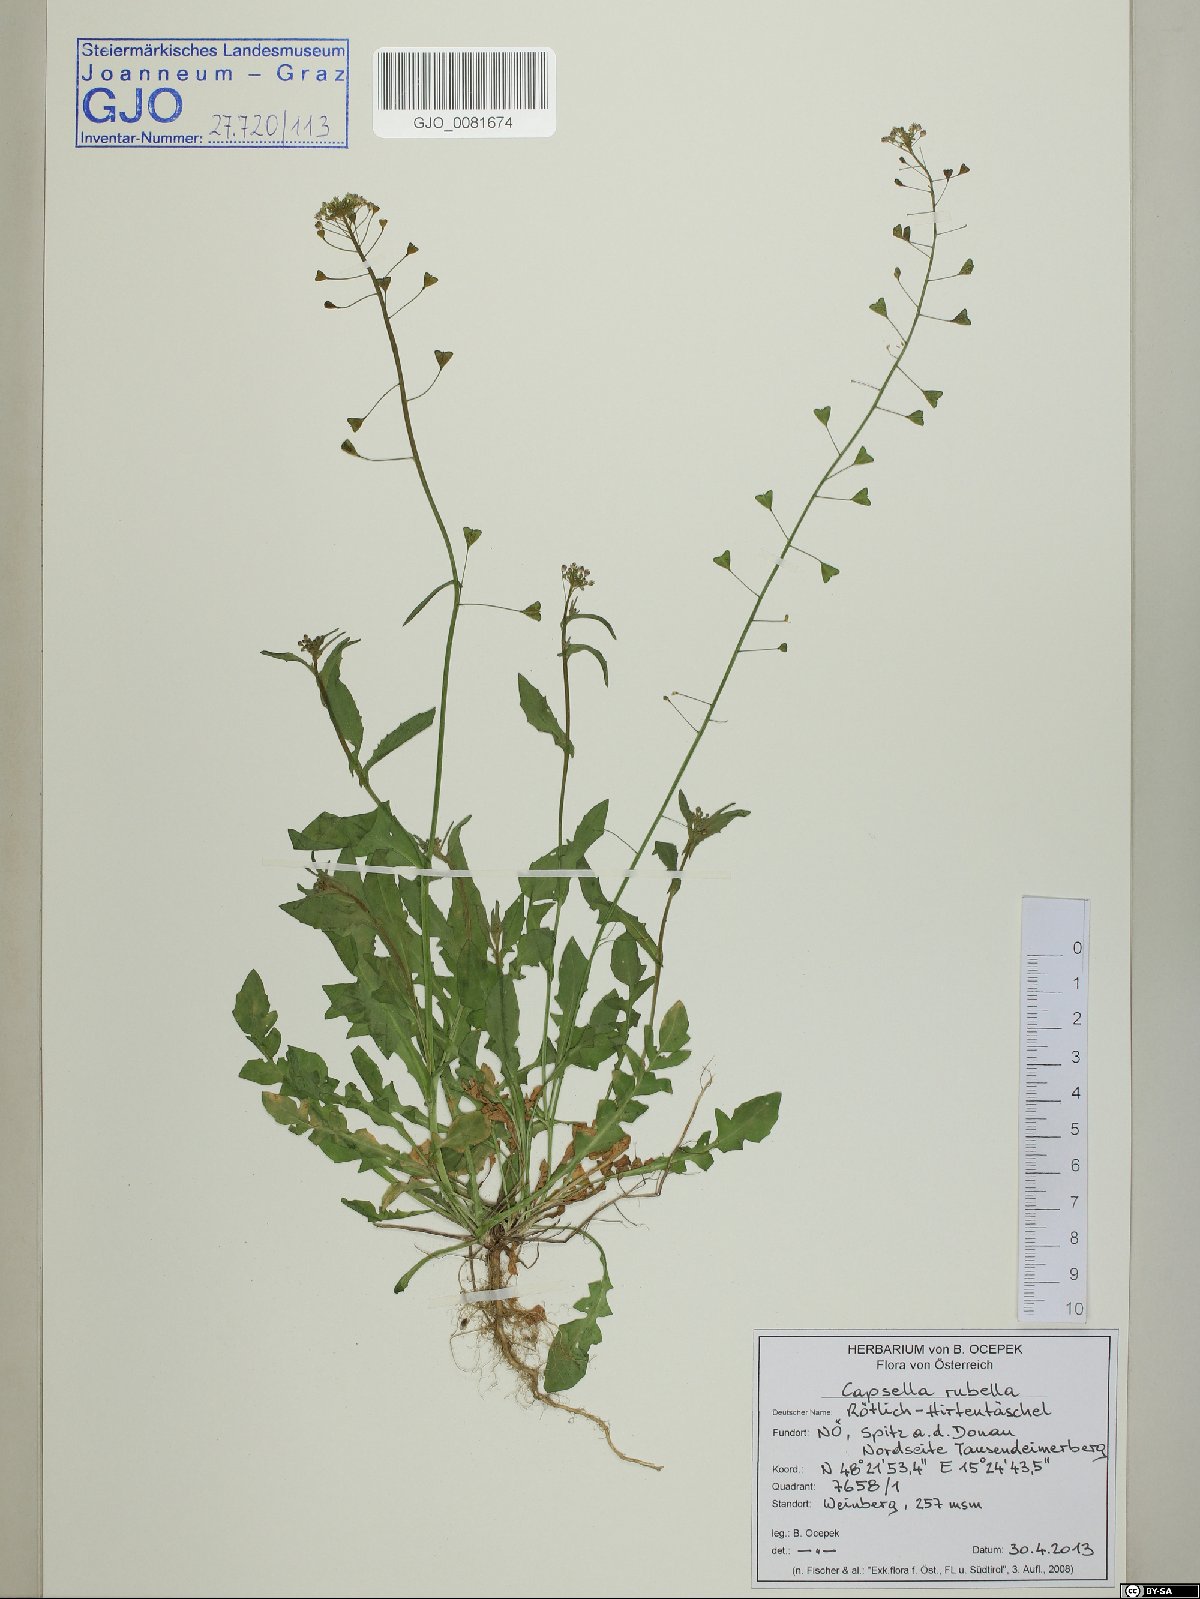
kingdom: Plantae
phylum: Tracheophyta
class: Magnoliopsida
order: Brassicales
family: Brassicaceae
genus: Capsella
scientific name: Capsella bursa-pastoris
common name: Shepherd's purse
